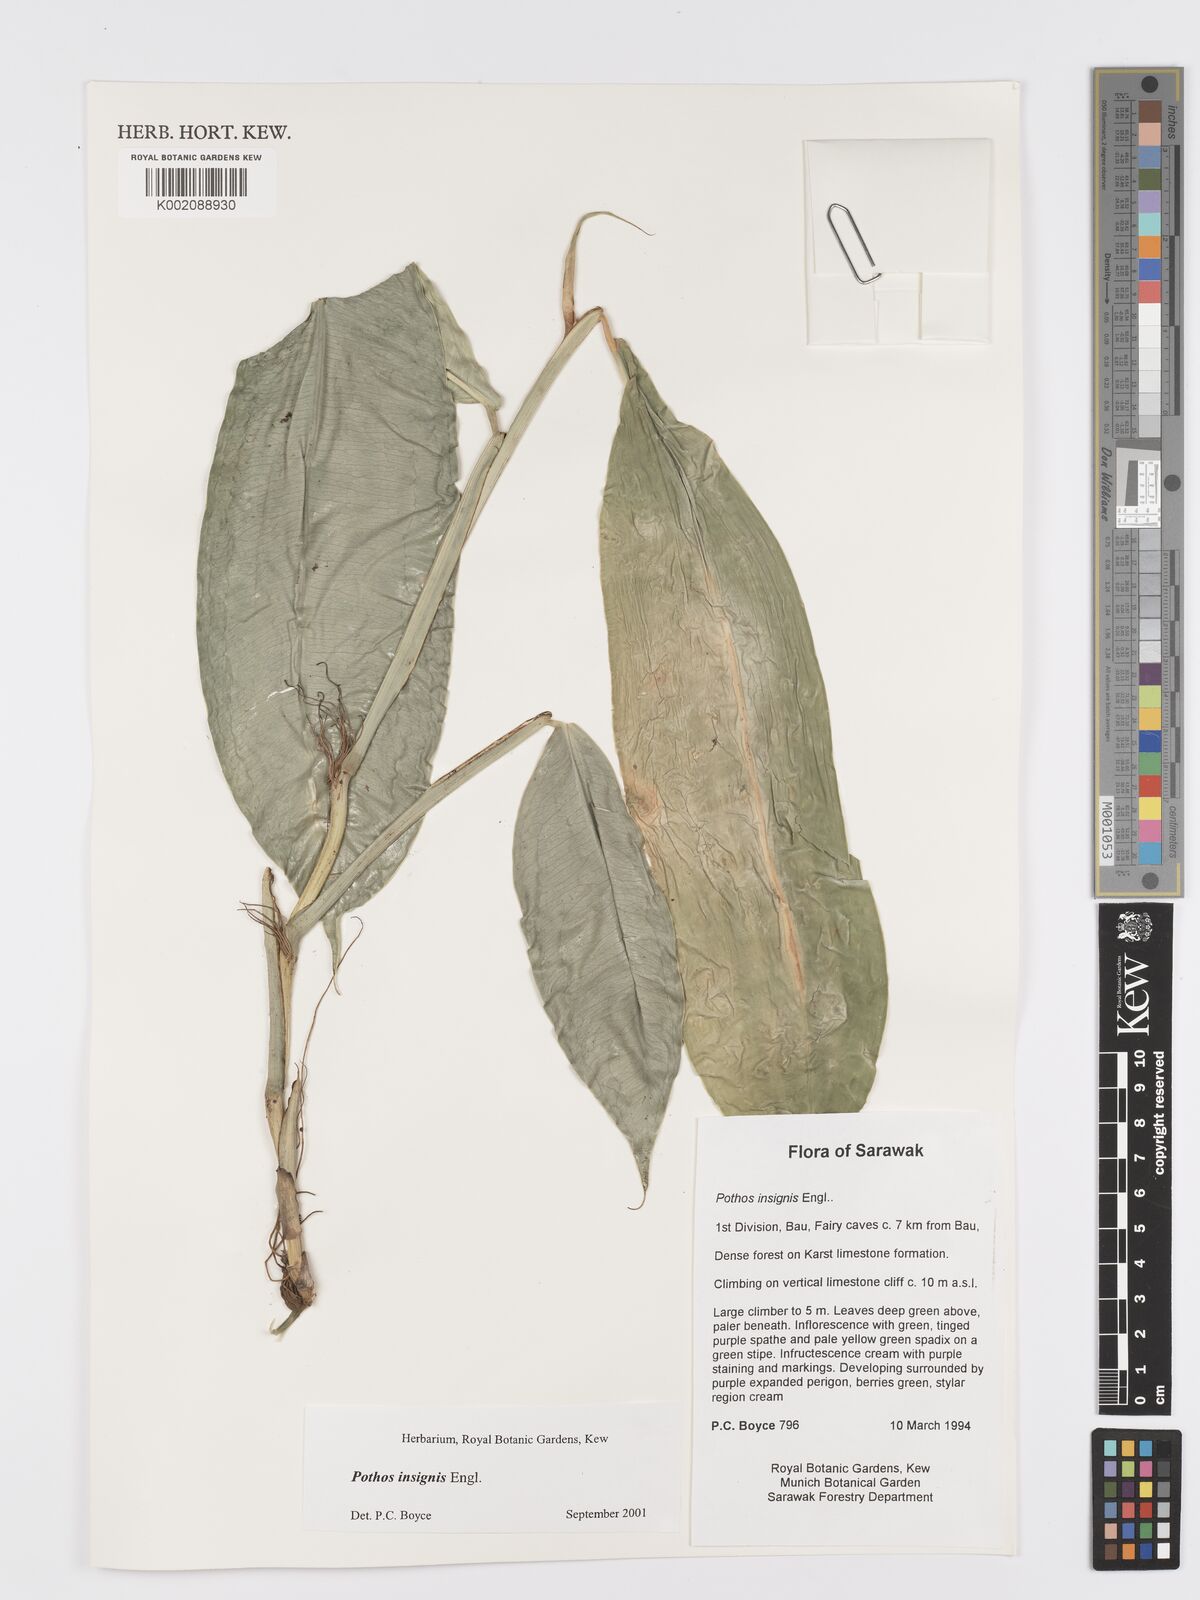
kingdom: Plantae
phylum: Tracheophyta
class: Liliopsida
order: Alismatales
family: Araceae
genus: Pothos
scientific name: Pothos insignis
